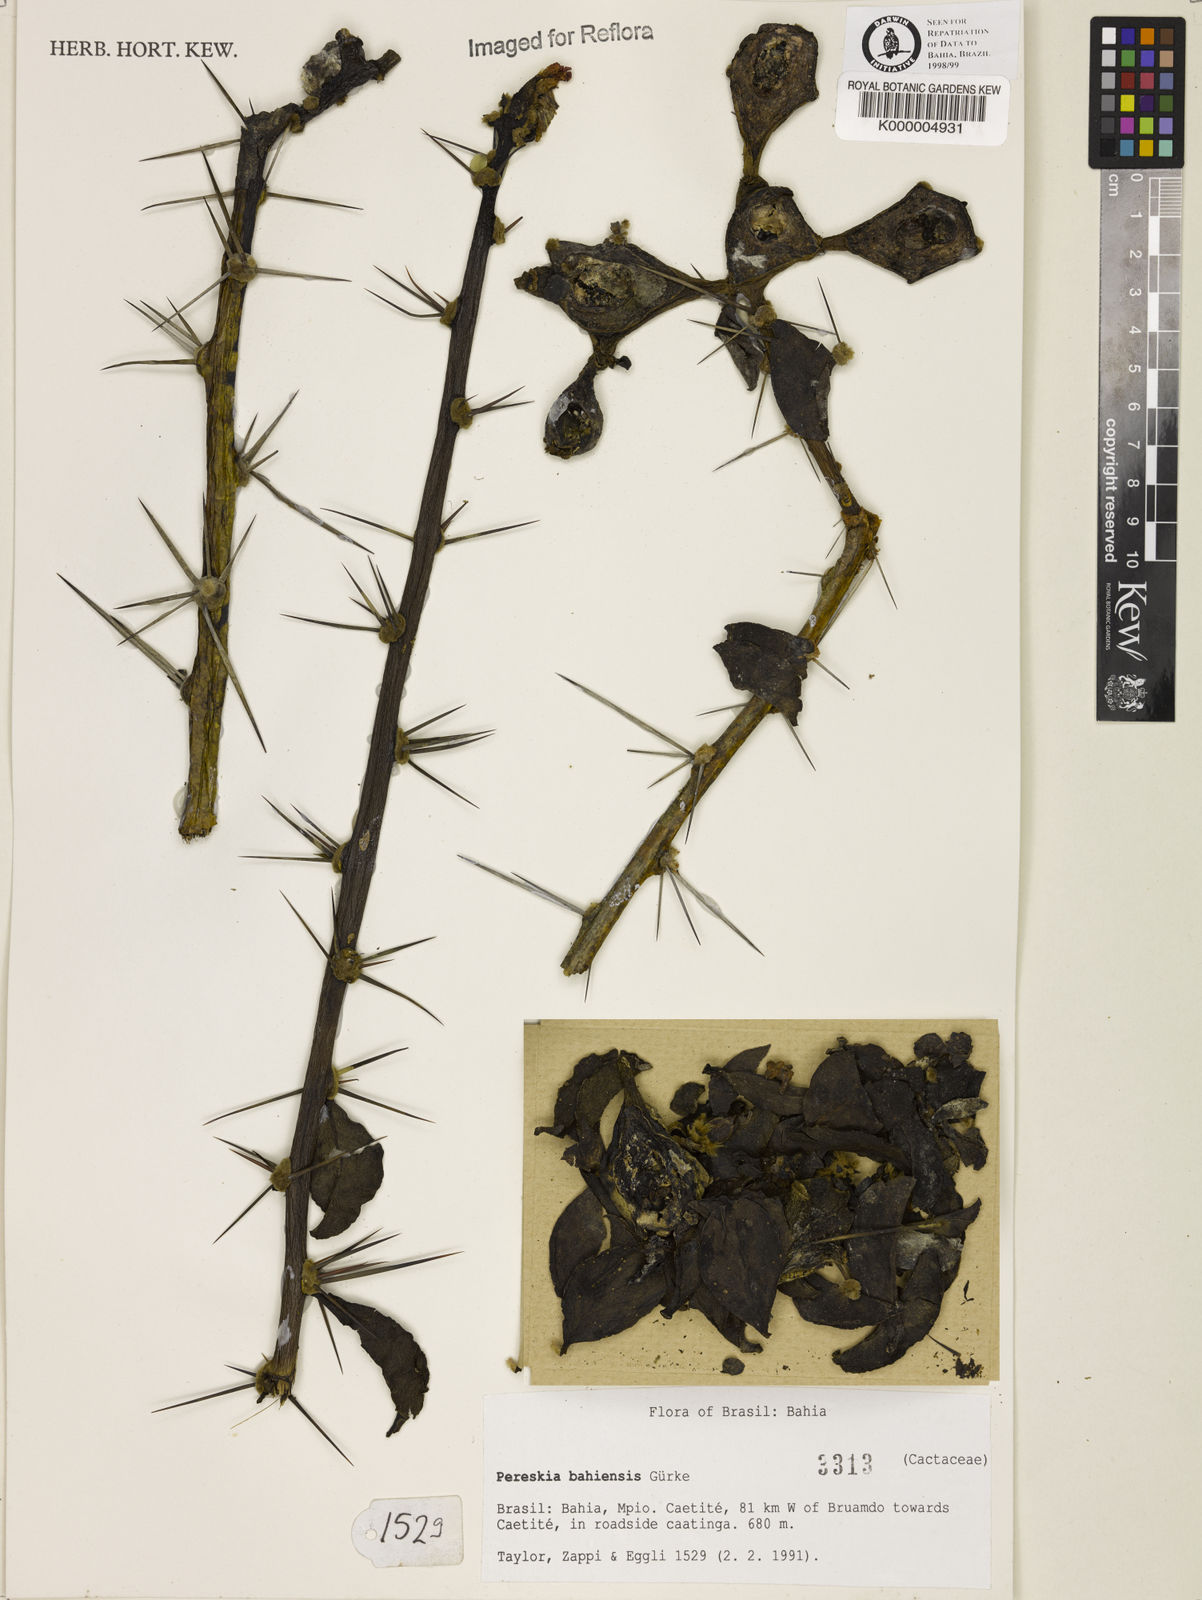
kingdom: Plantae
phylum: Tracheophyta
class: Magnoliopsida
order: Caryophyllales
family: Cactaceae
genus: Pereskia
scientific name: Pereskia
